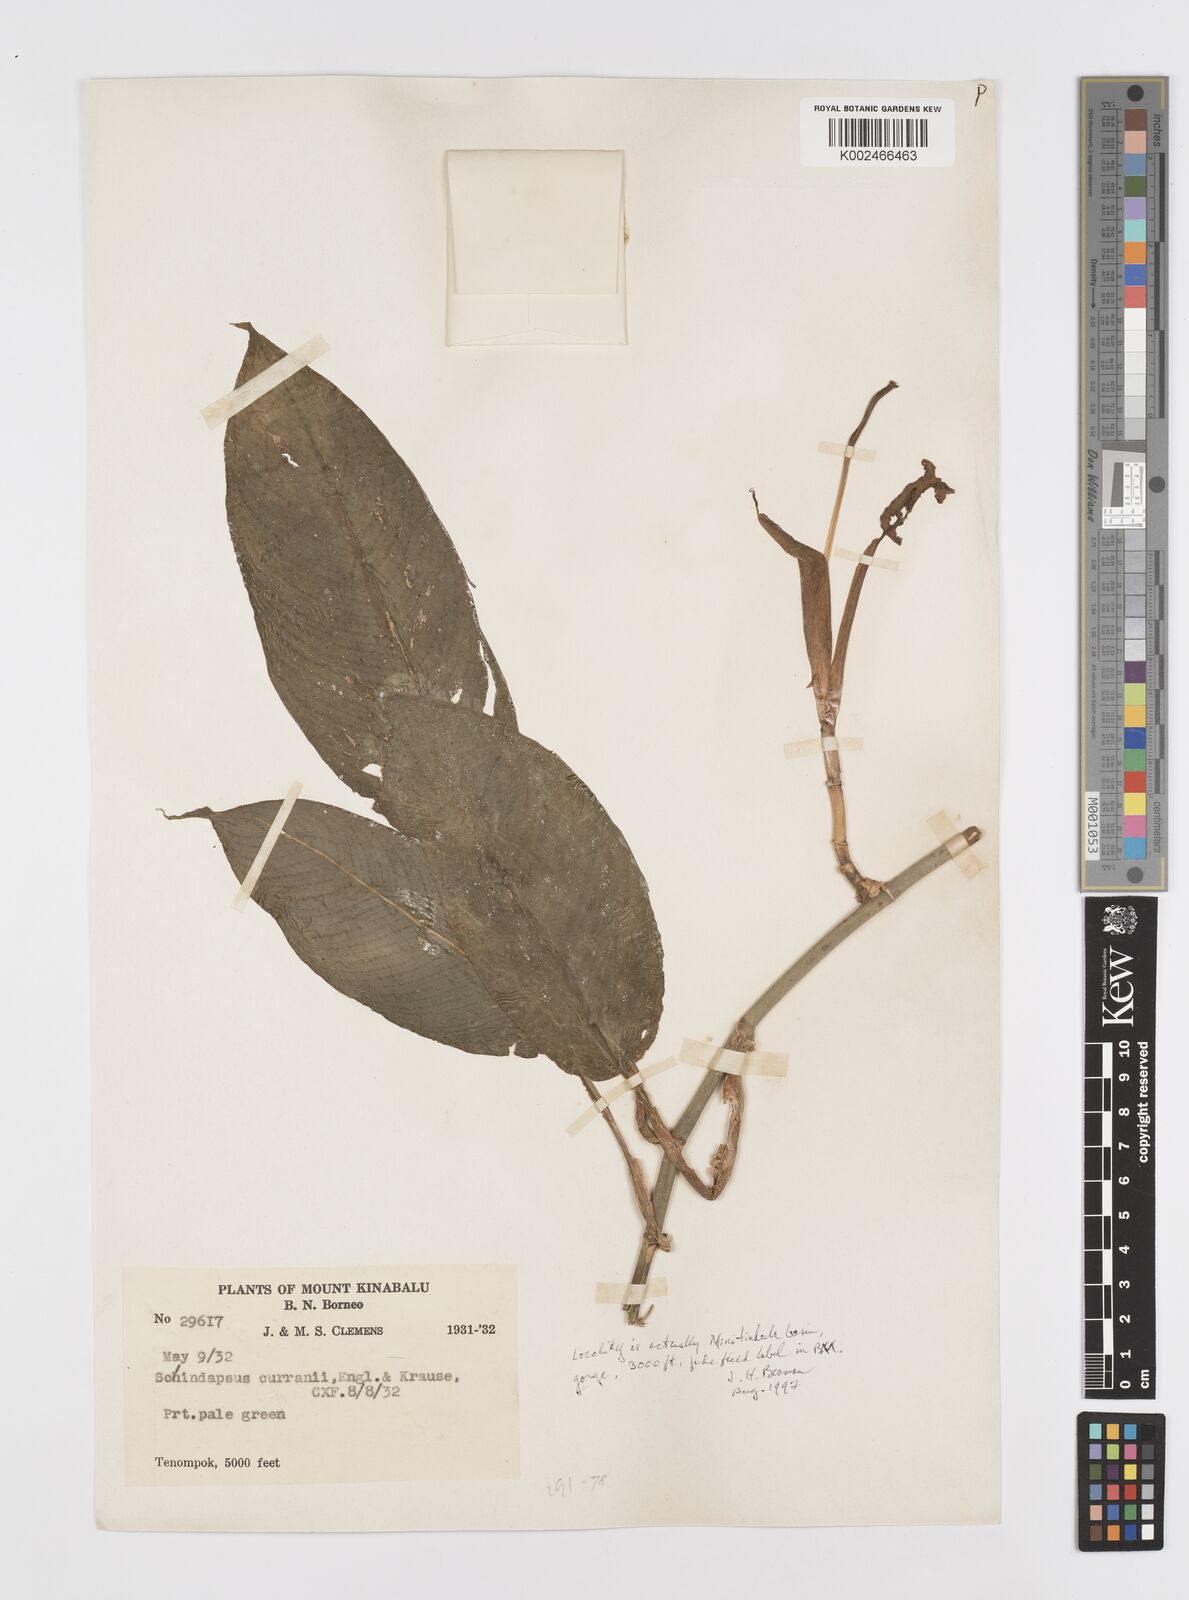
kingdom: Plantae
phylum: Tracheophyta
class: Liliopsida
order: Alismatales
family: Araceae
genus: Scindapsus
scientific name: Scindapsus curranii
